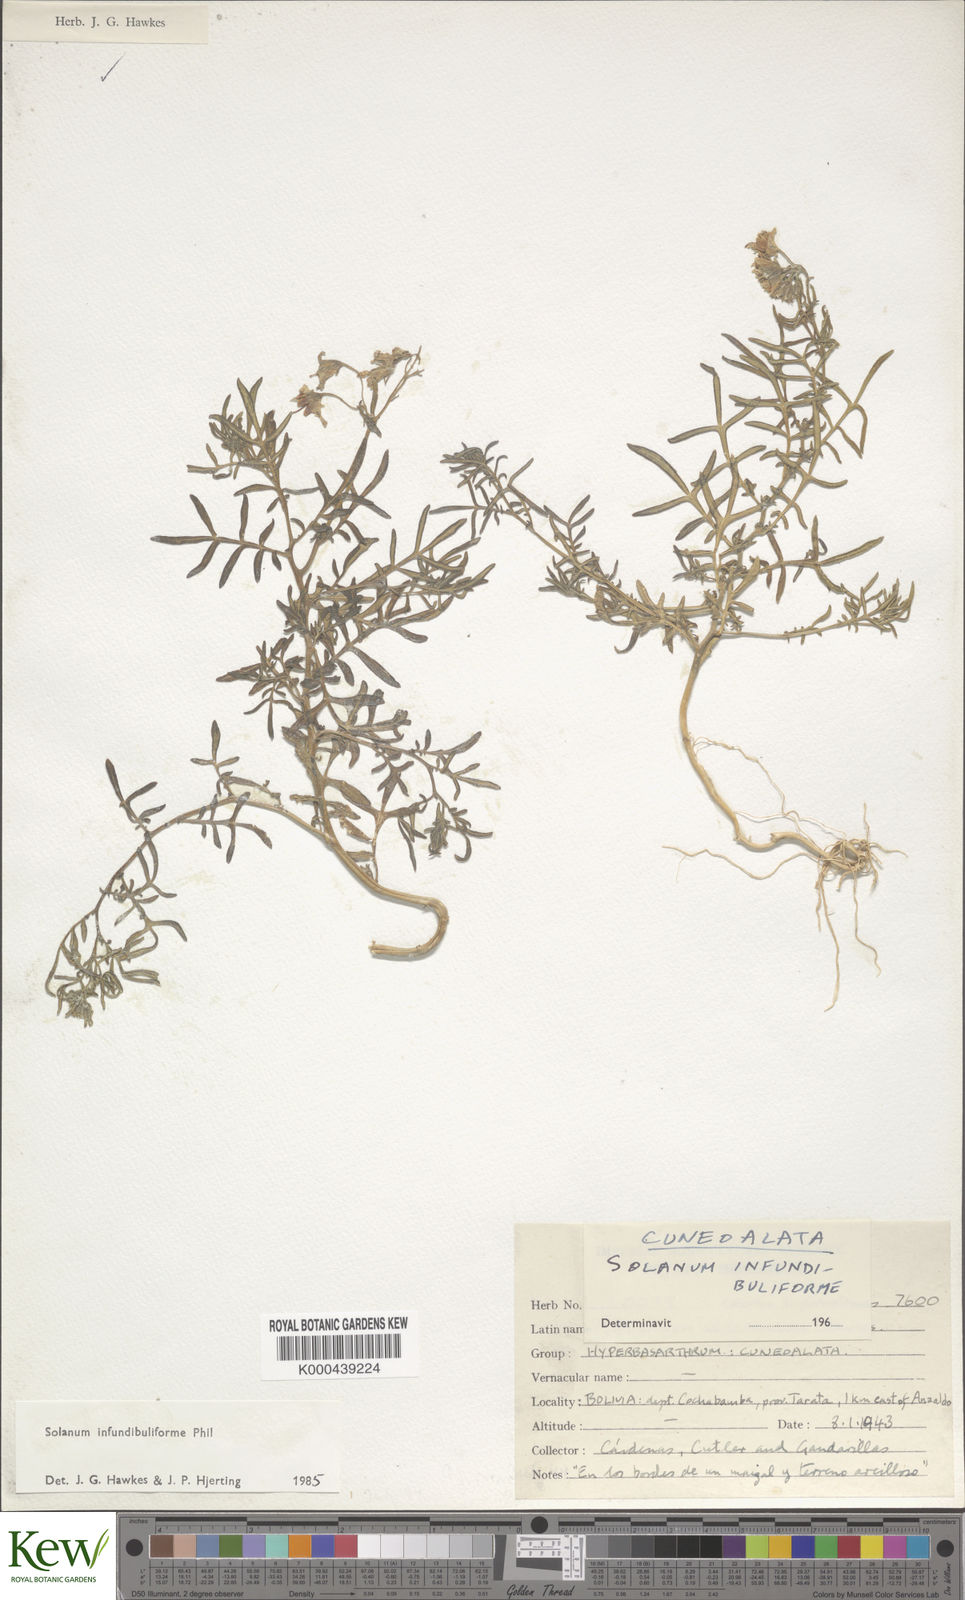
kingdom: Plantae
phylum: Tracheophyta
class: Magnoliopsida
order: Solanales
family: Solanaceae
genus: Solanum
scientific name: Solanum infundibuliforme
